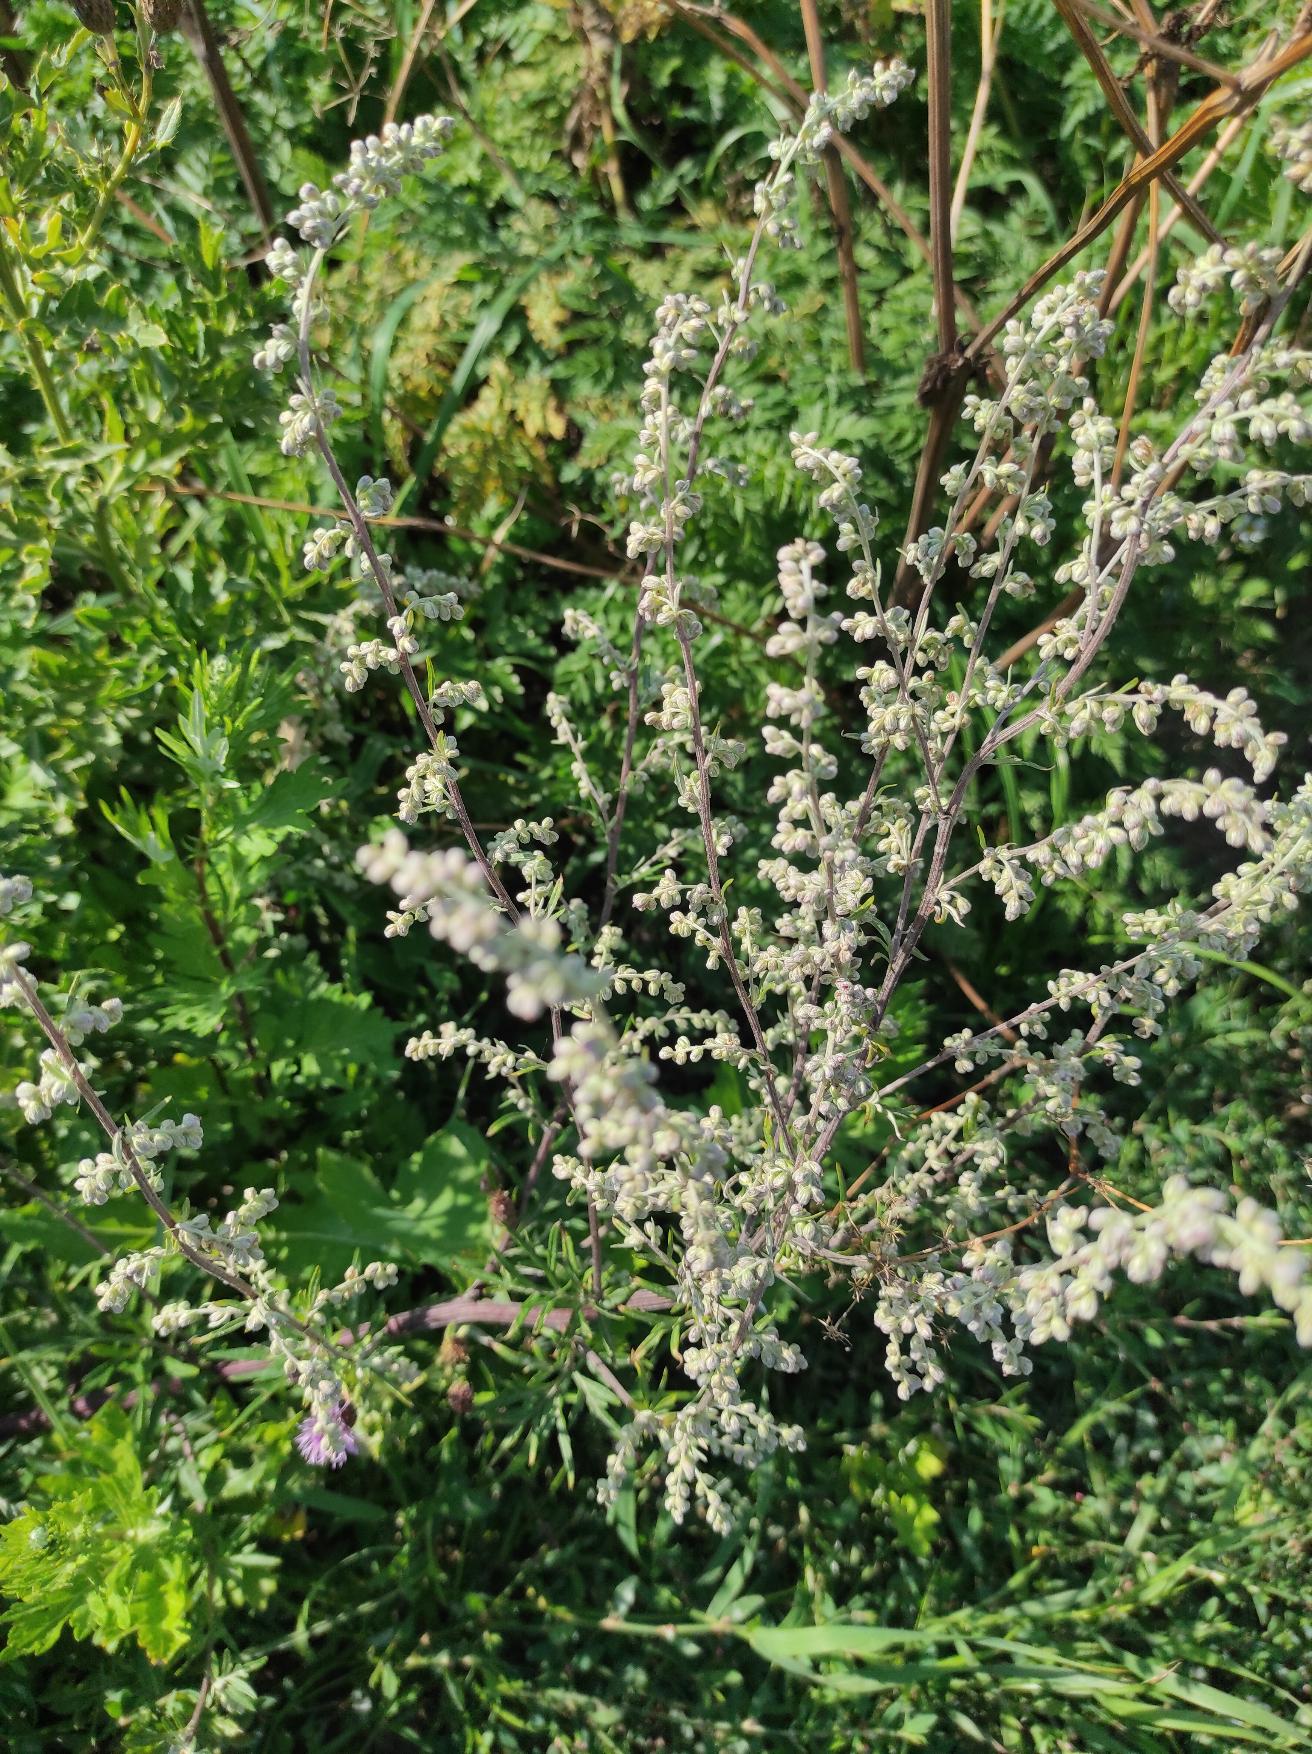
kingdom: Plantae
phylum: Tracheophyta
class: Magnoliopsida
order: Asterales
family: Asteraceae
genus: Artemisia
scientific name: Artemisia vulgaris
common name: Grå-bynke
